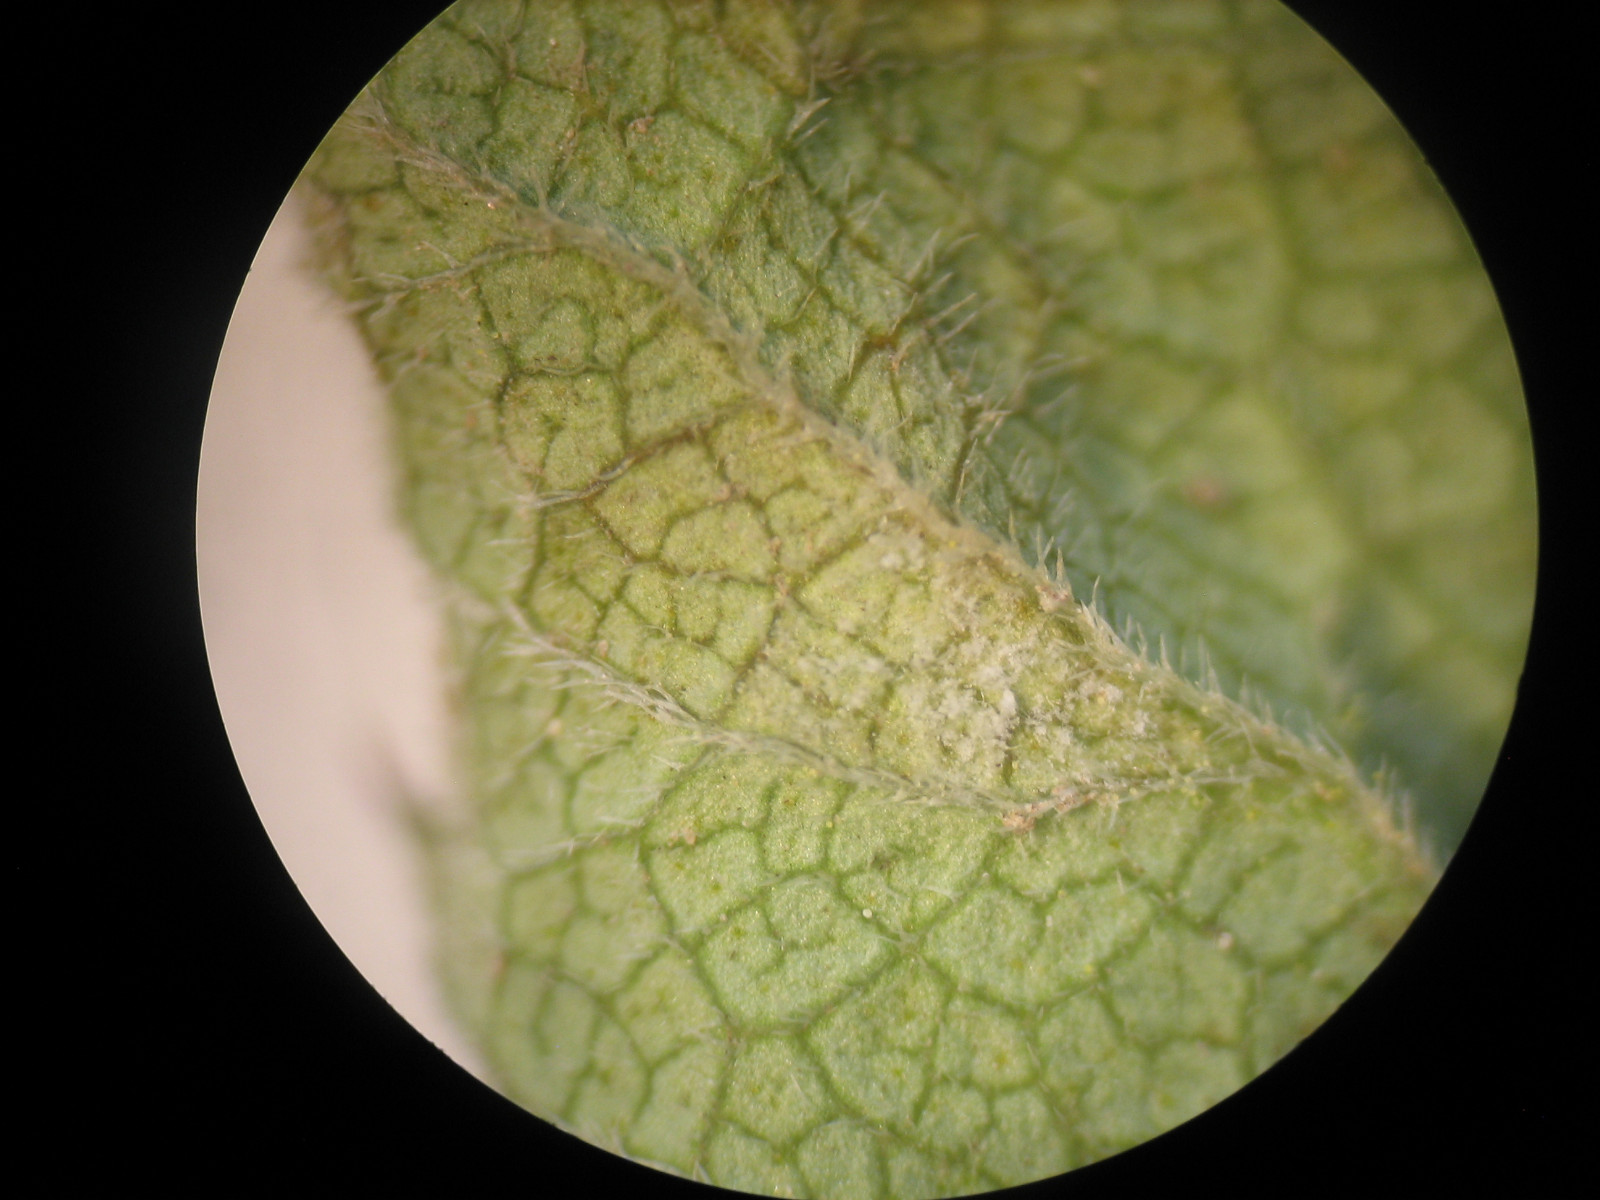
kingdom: Chromista
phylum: Oomycota
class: Peronosporea
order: Peronosporales
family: Peronosporaceae
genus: Peronospora
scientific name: Peronospora crustosa
